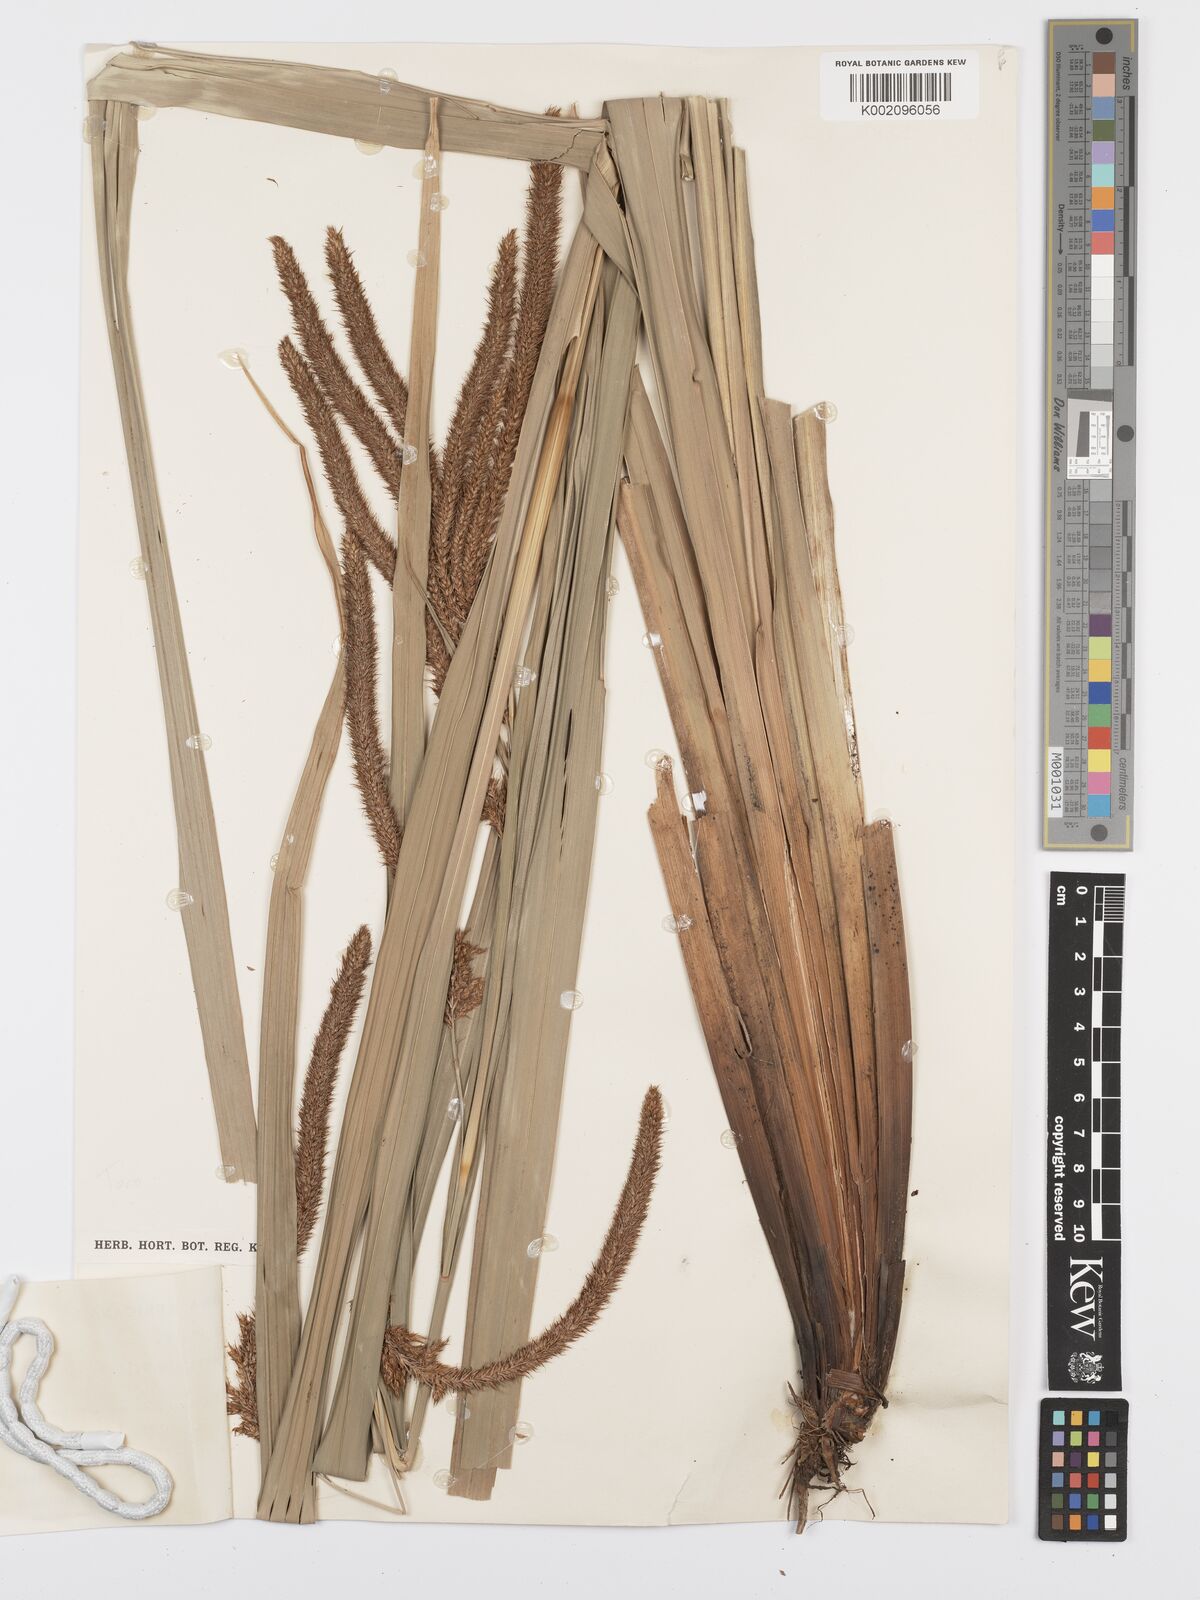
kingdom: Plantae
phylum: Tracheophyta
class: Liliopsida
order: Poales
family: Cyperaceae
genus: Carex
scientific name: Carex bequaertii
